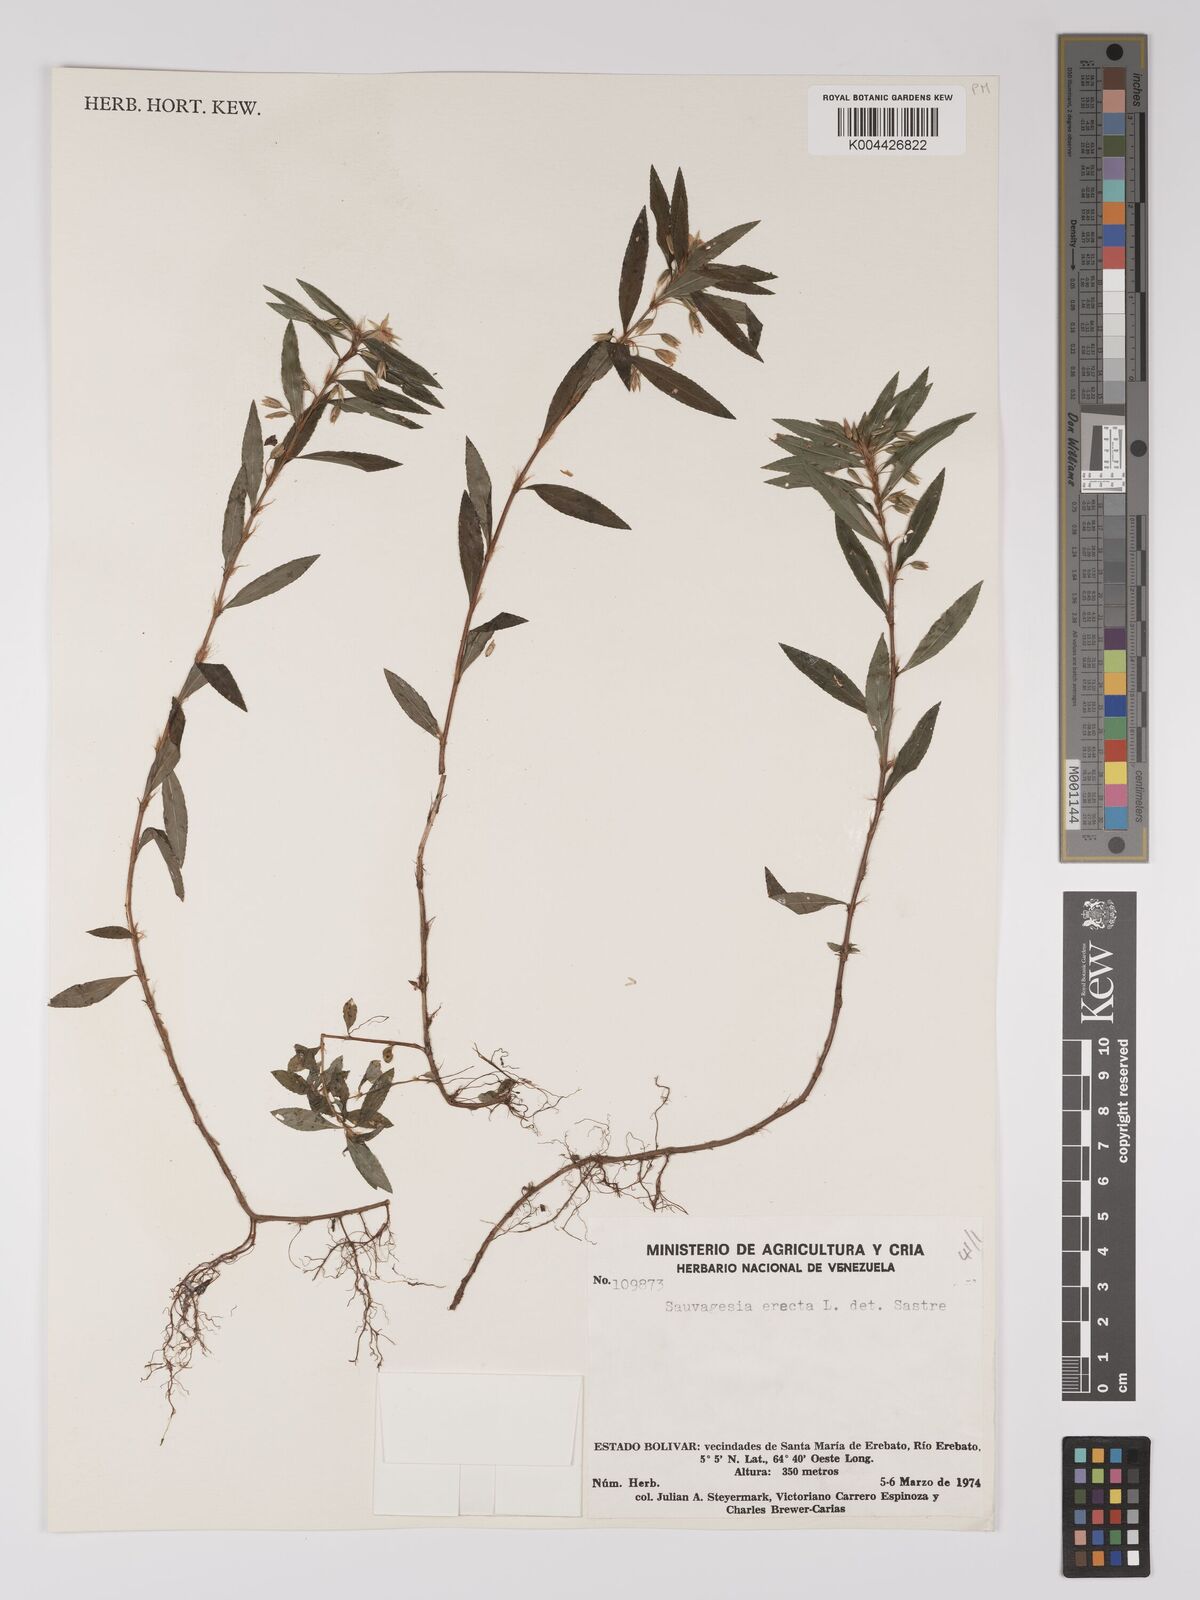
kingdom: Plantae
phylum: Tracheophyta
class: Magnoliopsida
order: Malpighiales
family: Ochnaceae
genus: Sauvagesia
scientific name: Sauvagesia erecta
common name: Creole tea
